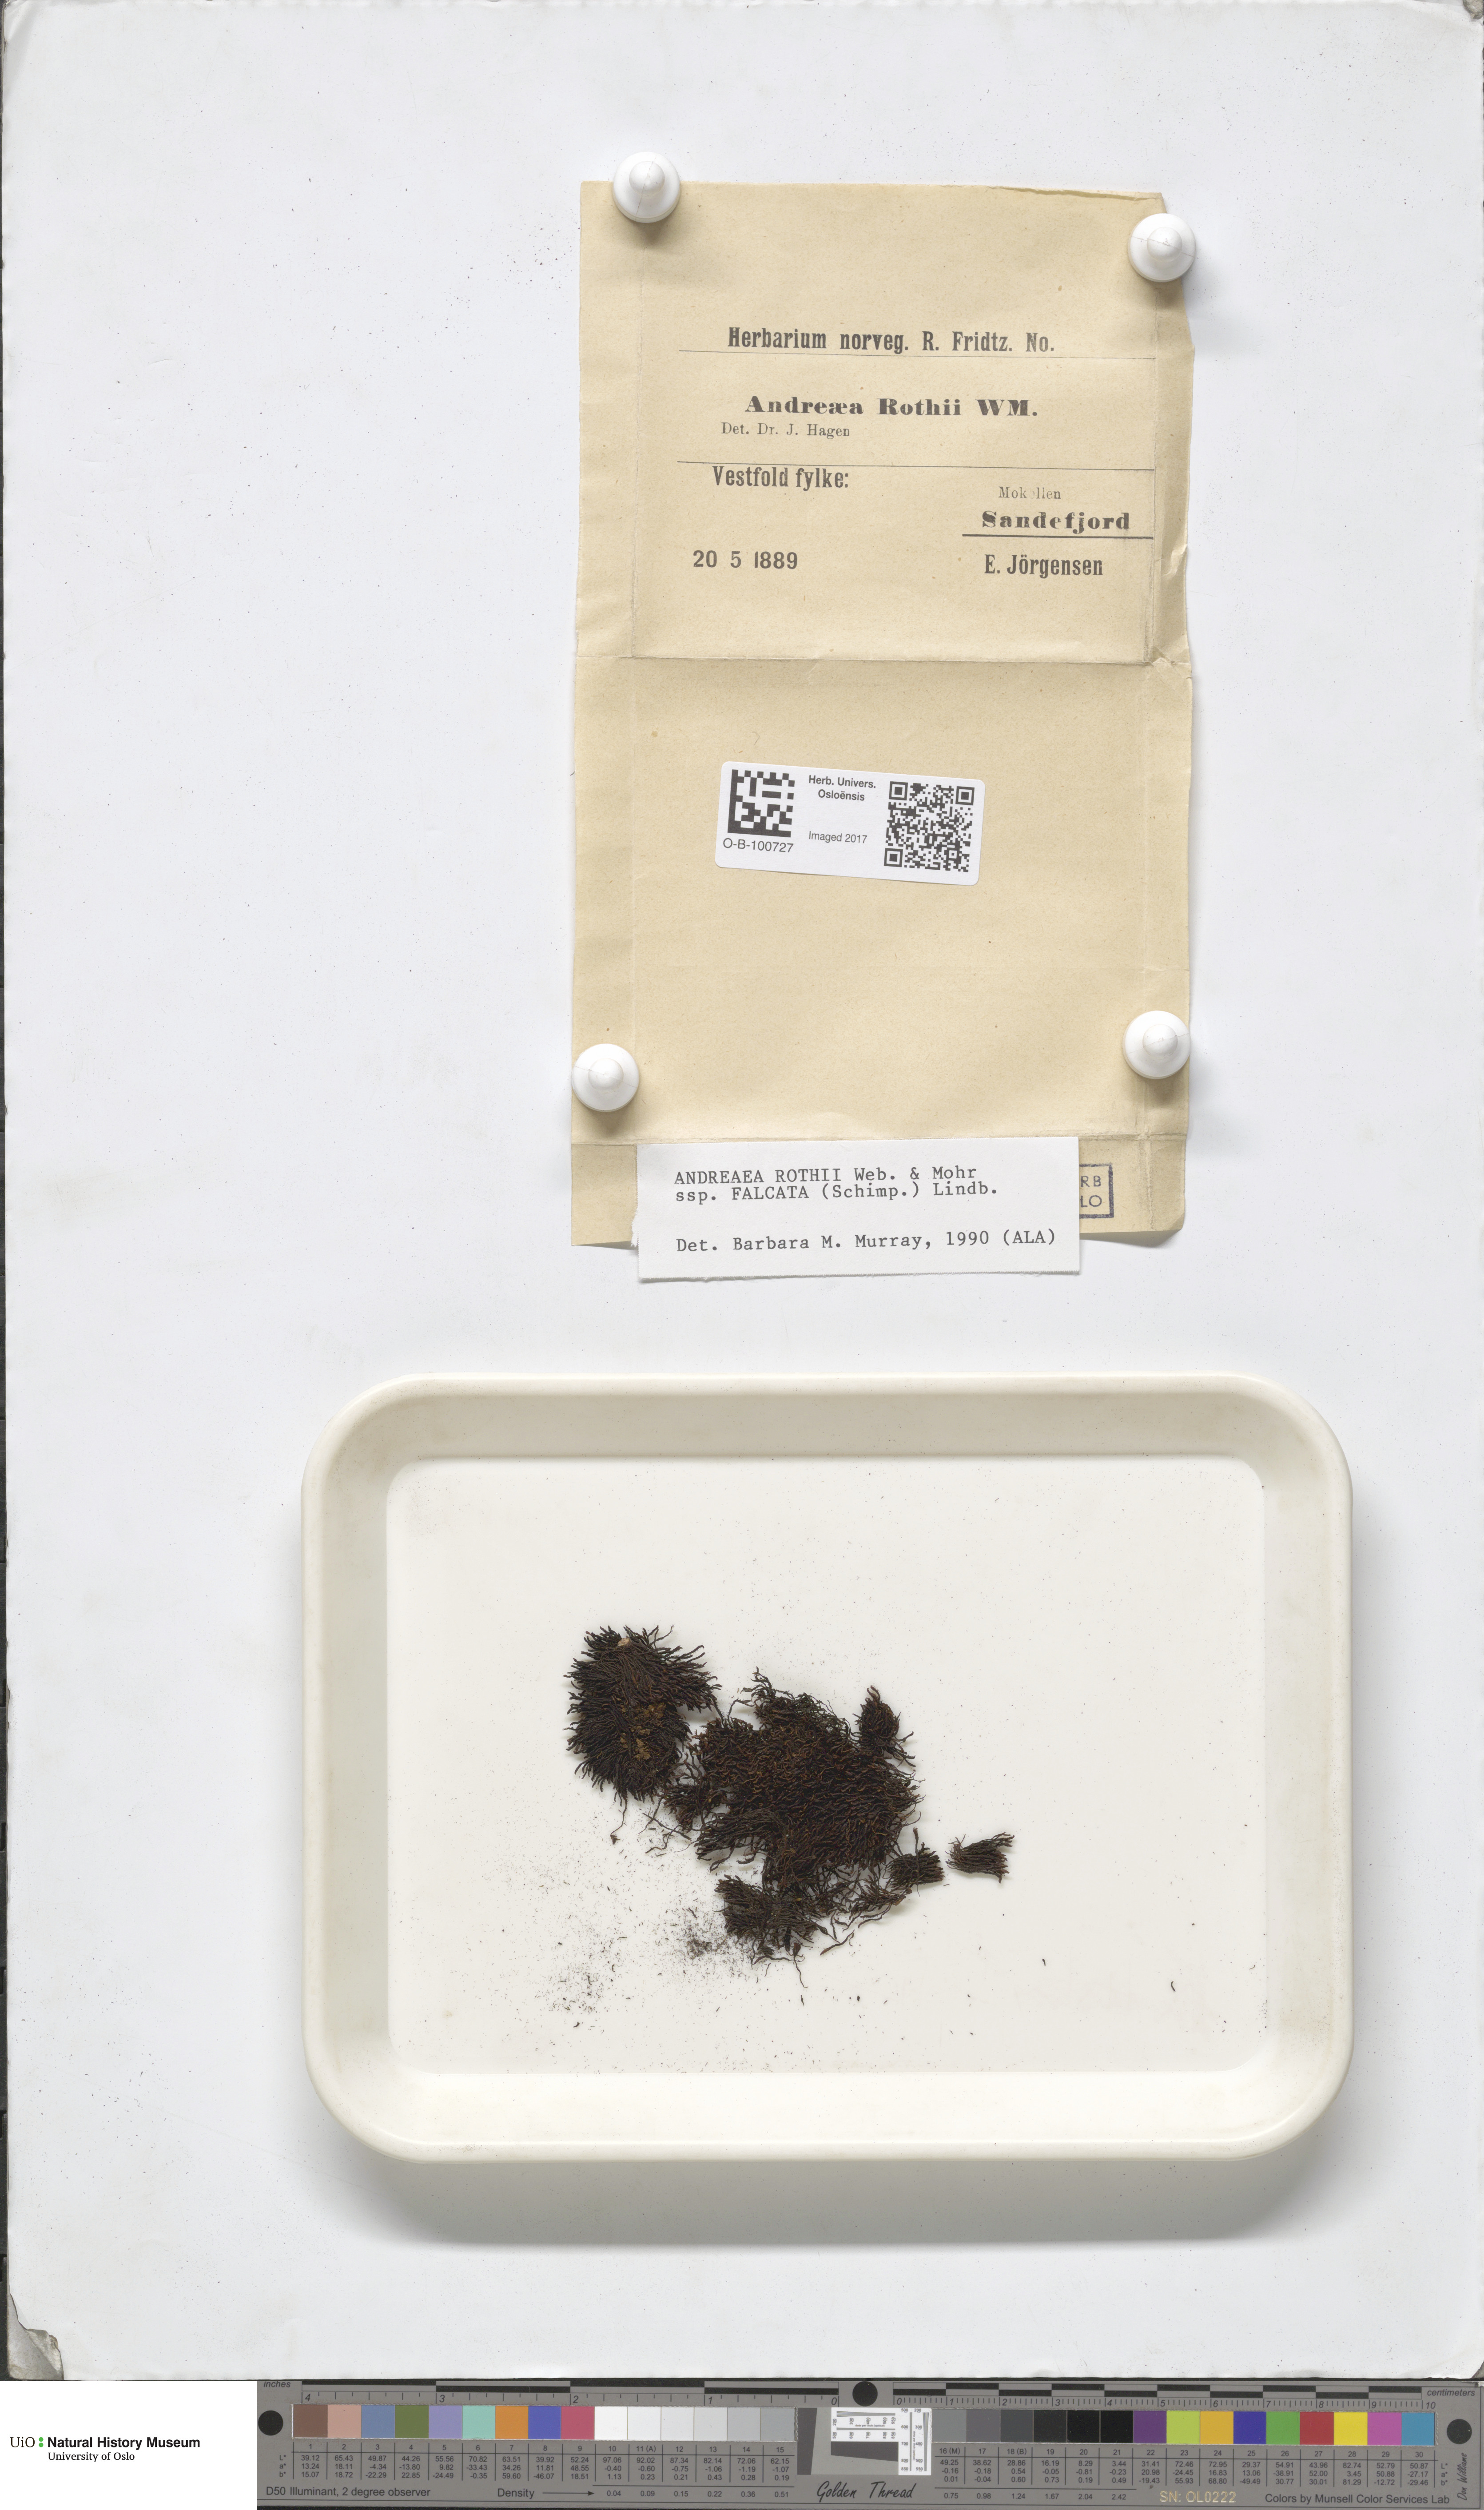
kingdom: Plantae
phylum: Bryophyta
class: Andreaeopsida
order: Andreaeales
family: Andreaeaceae
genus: Andreaea
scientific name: Andreaea rothii
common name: Dusky rock moss
